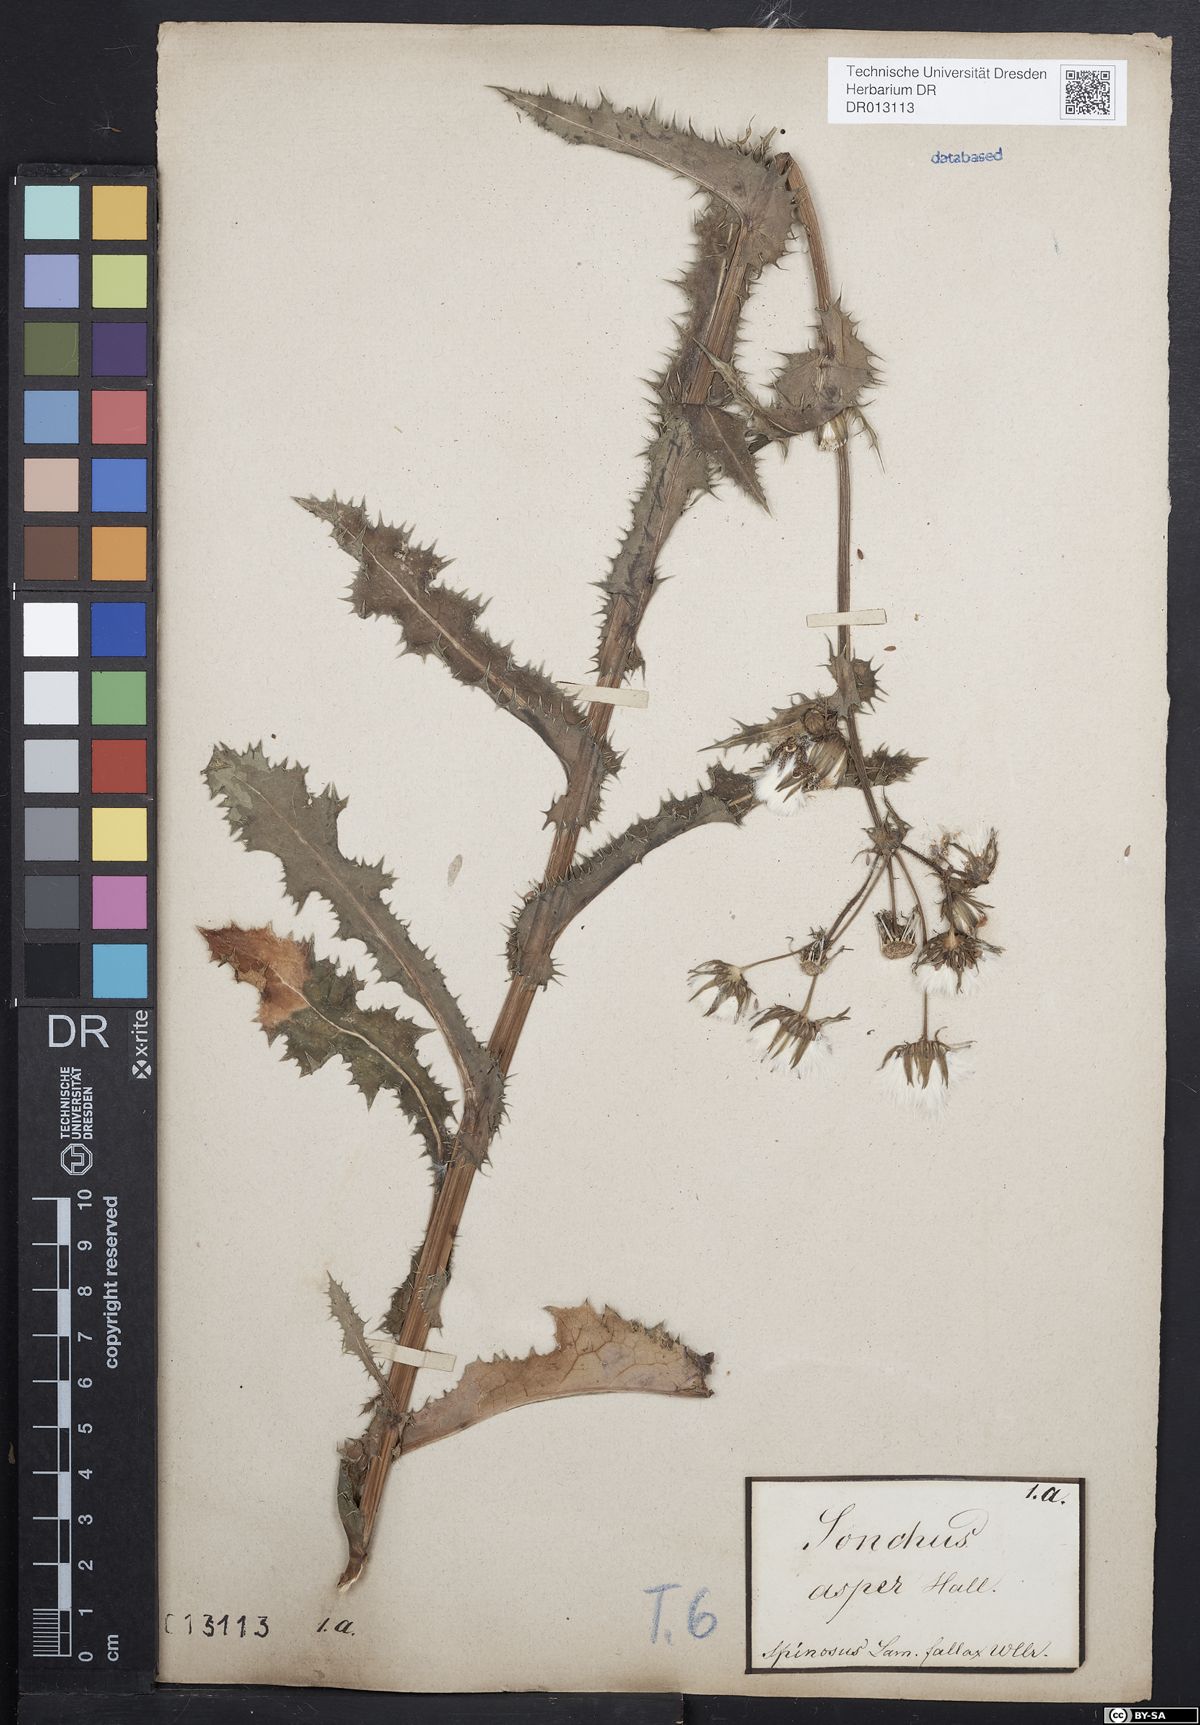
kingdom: Plantae
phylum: Tracheophyta
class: Magnoliopsida
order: Asterales
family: Asteraceae
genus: Sonchus
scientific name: Sonchus asper
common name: Prickly sow-thistle
